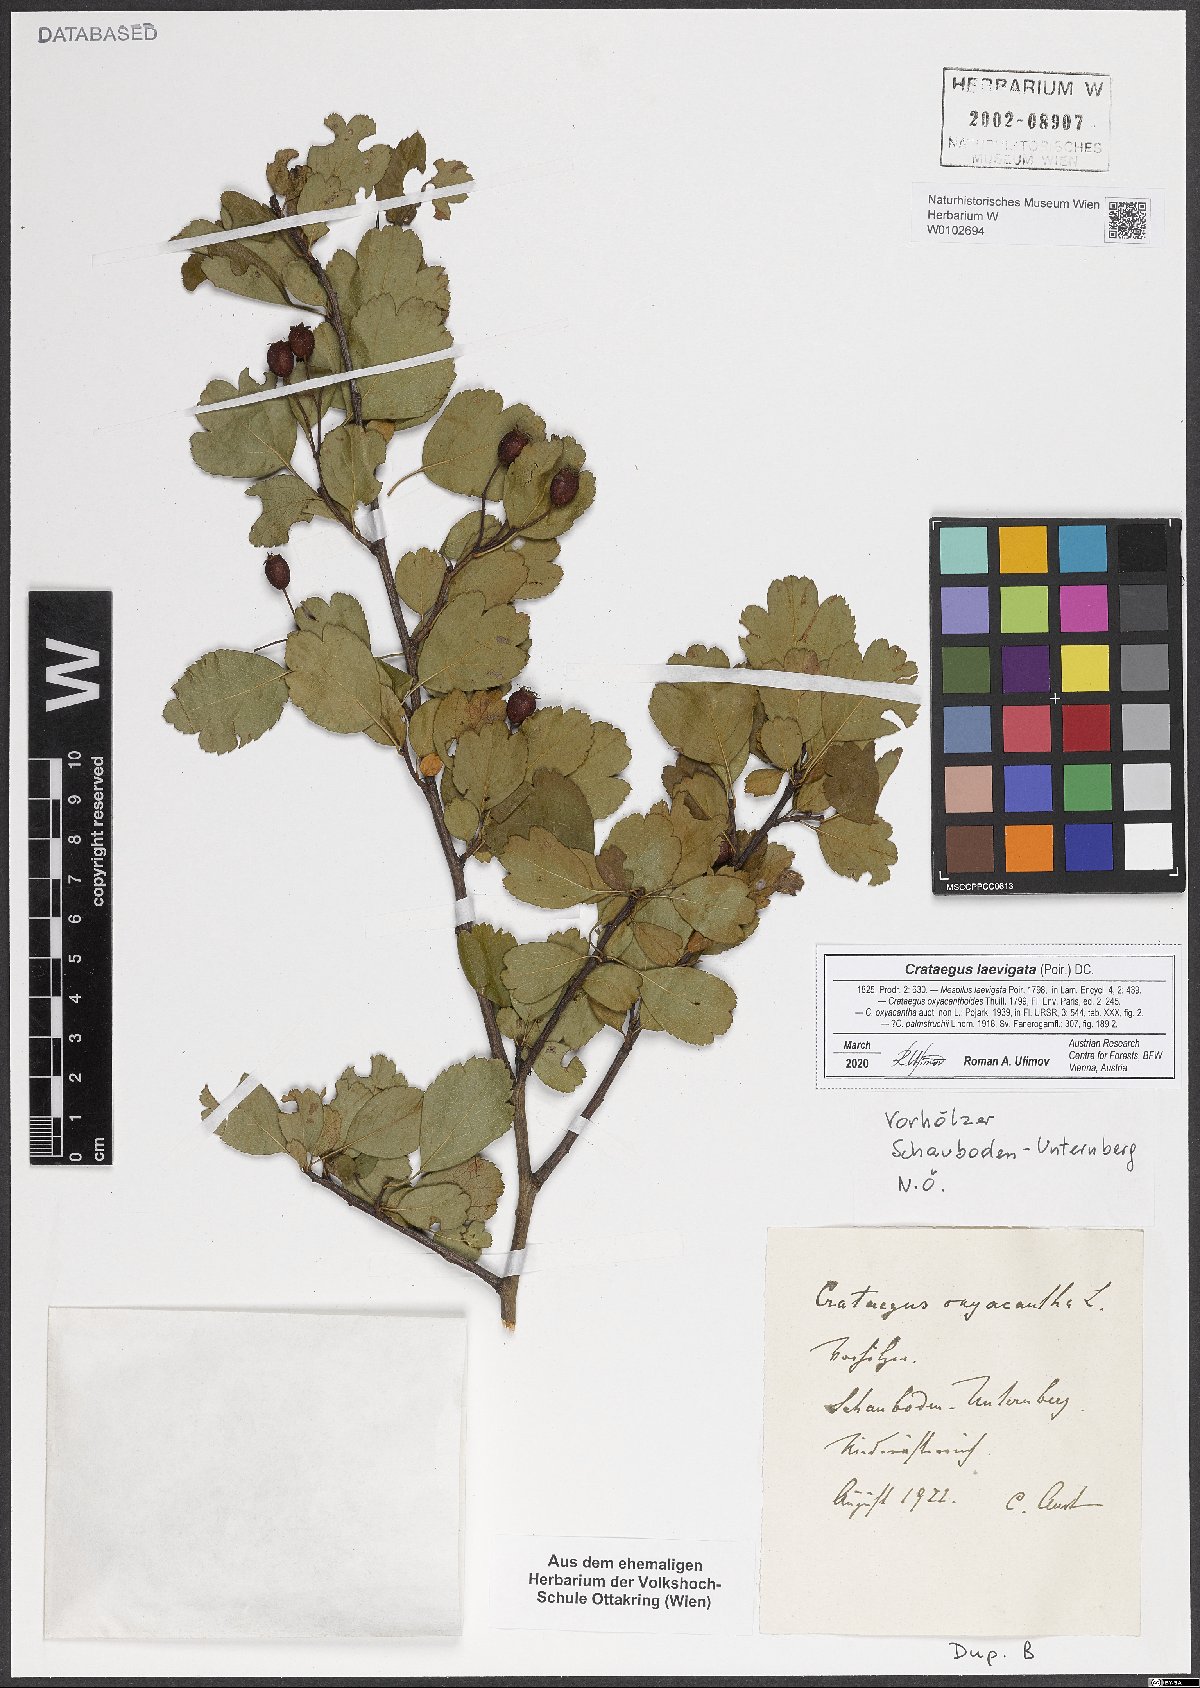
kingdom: Plantae
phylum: Tracheophyta
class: Magnoliopsida
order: Rosales
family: Rosaceae
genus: Crataegus
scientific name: Crataegus laevigata
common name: Midland hawthorn
